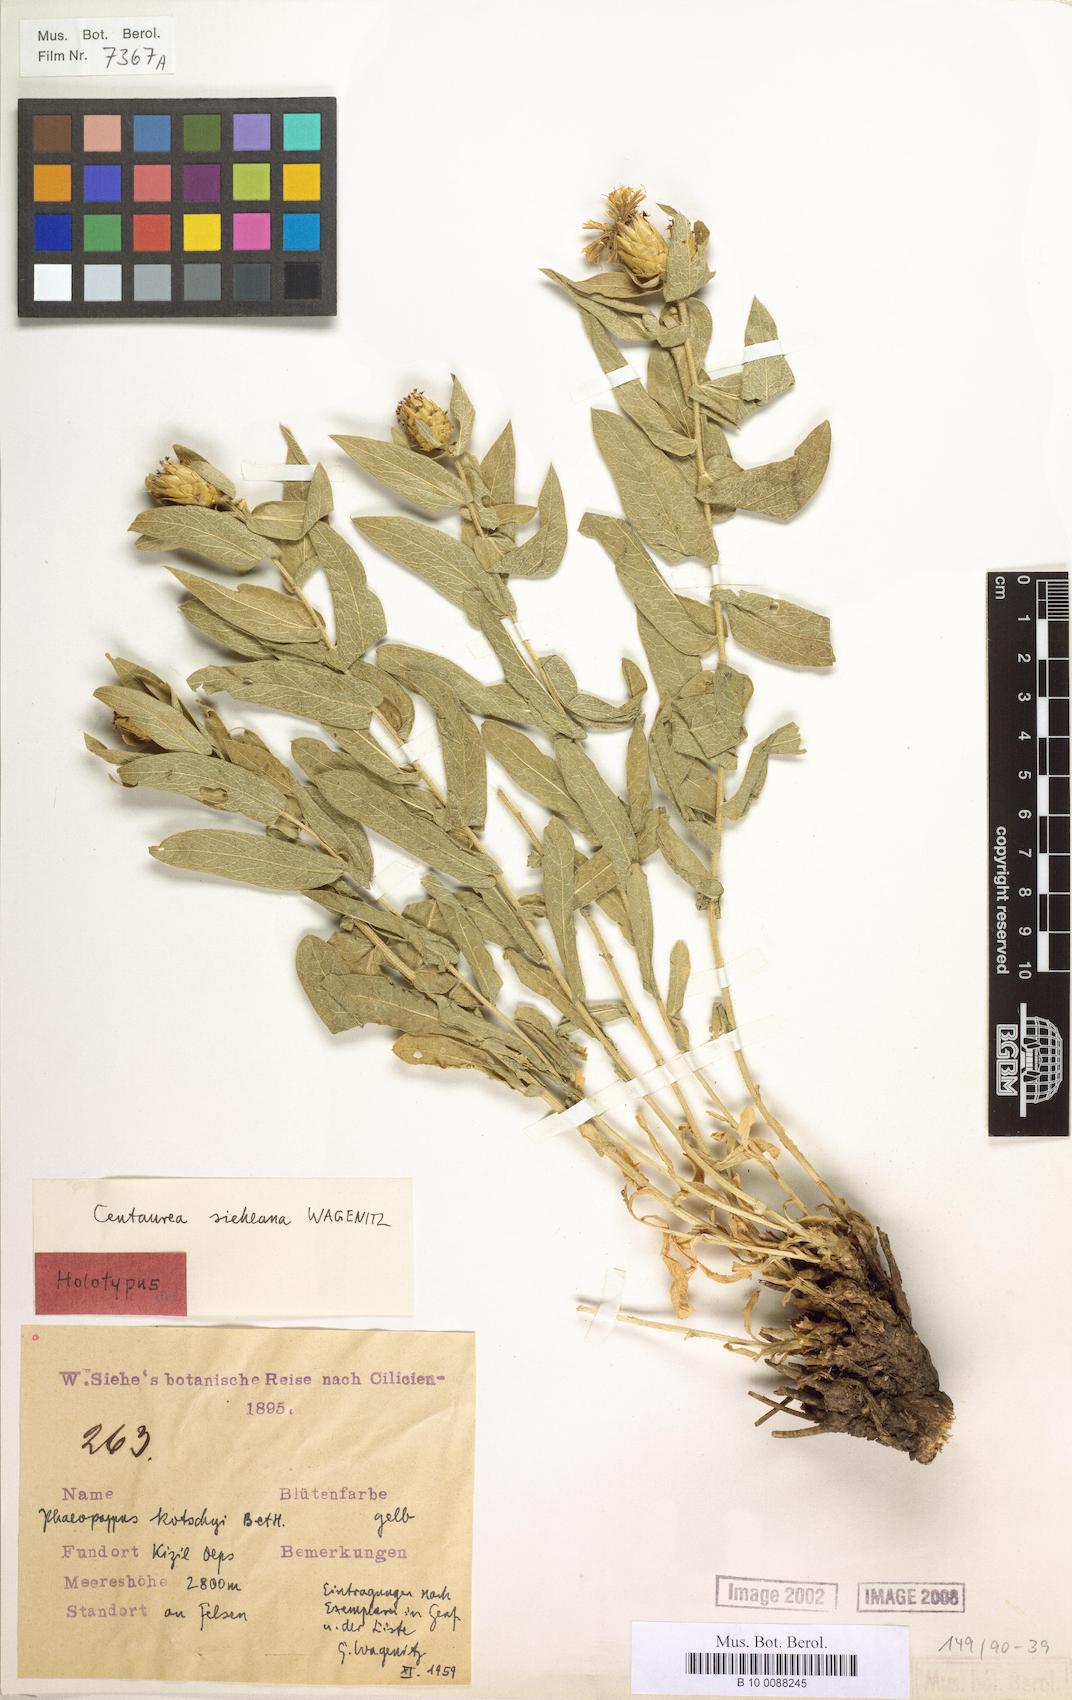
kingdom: Plantae
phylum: Tracheophyta
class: Magnoliopsida
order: Asterales
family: Asteraceae
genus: Centaurea
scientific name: Centaurea sieheana
